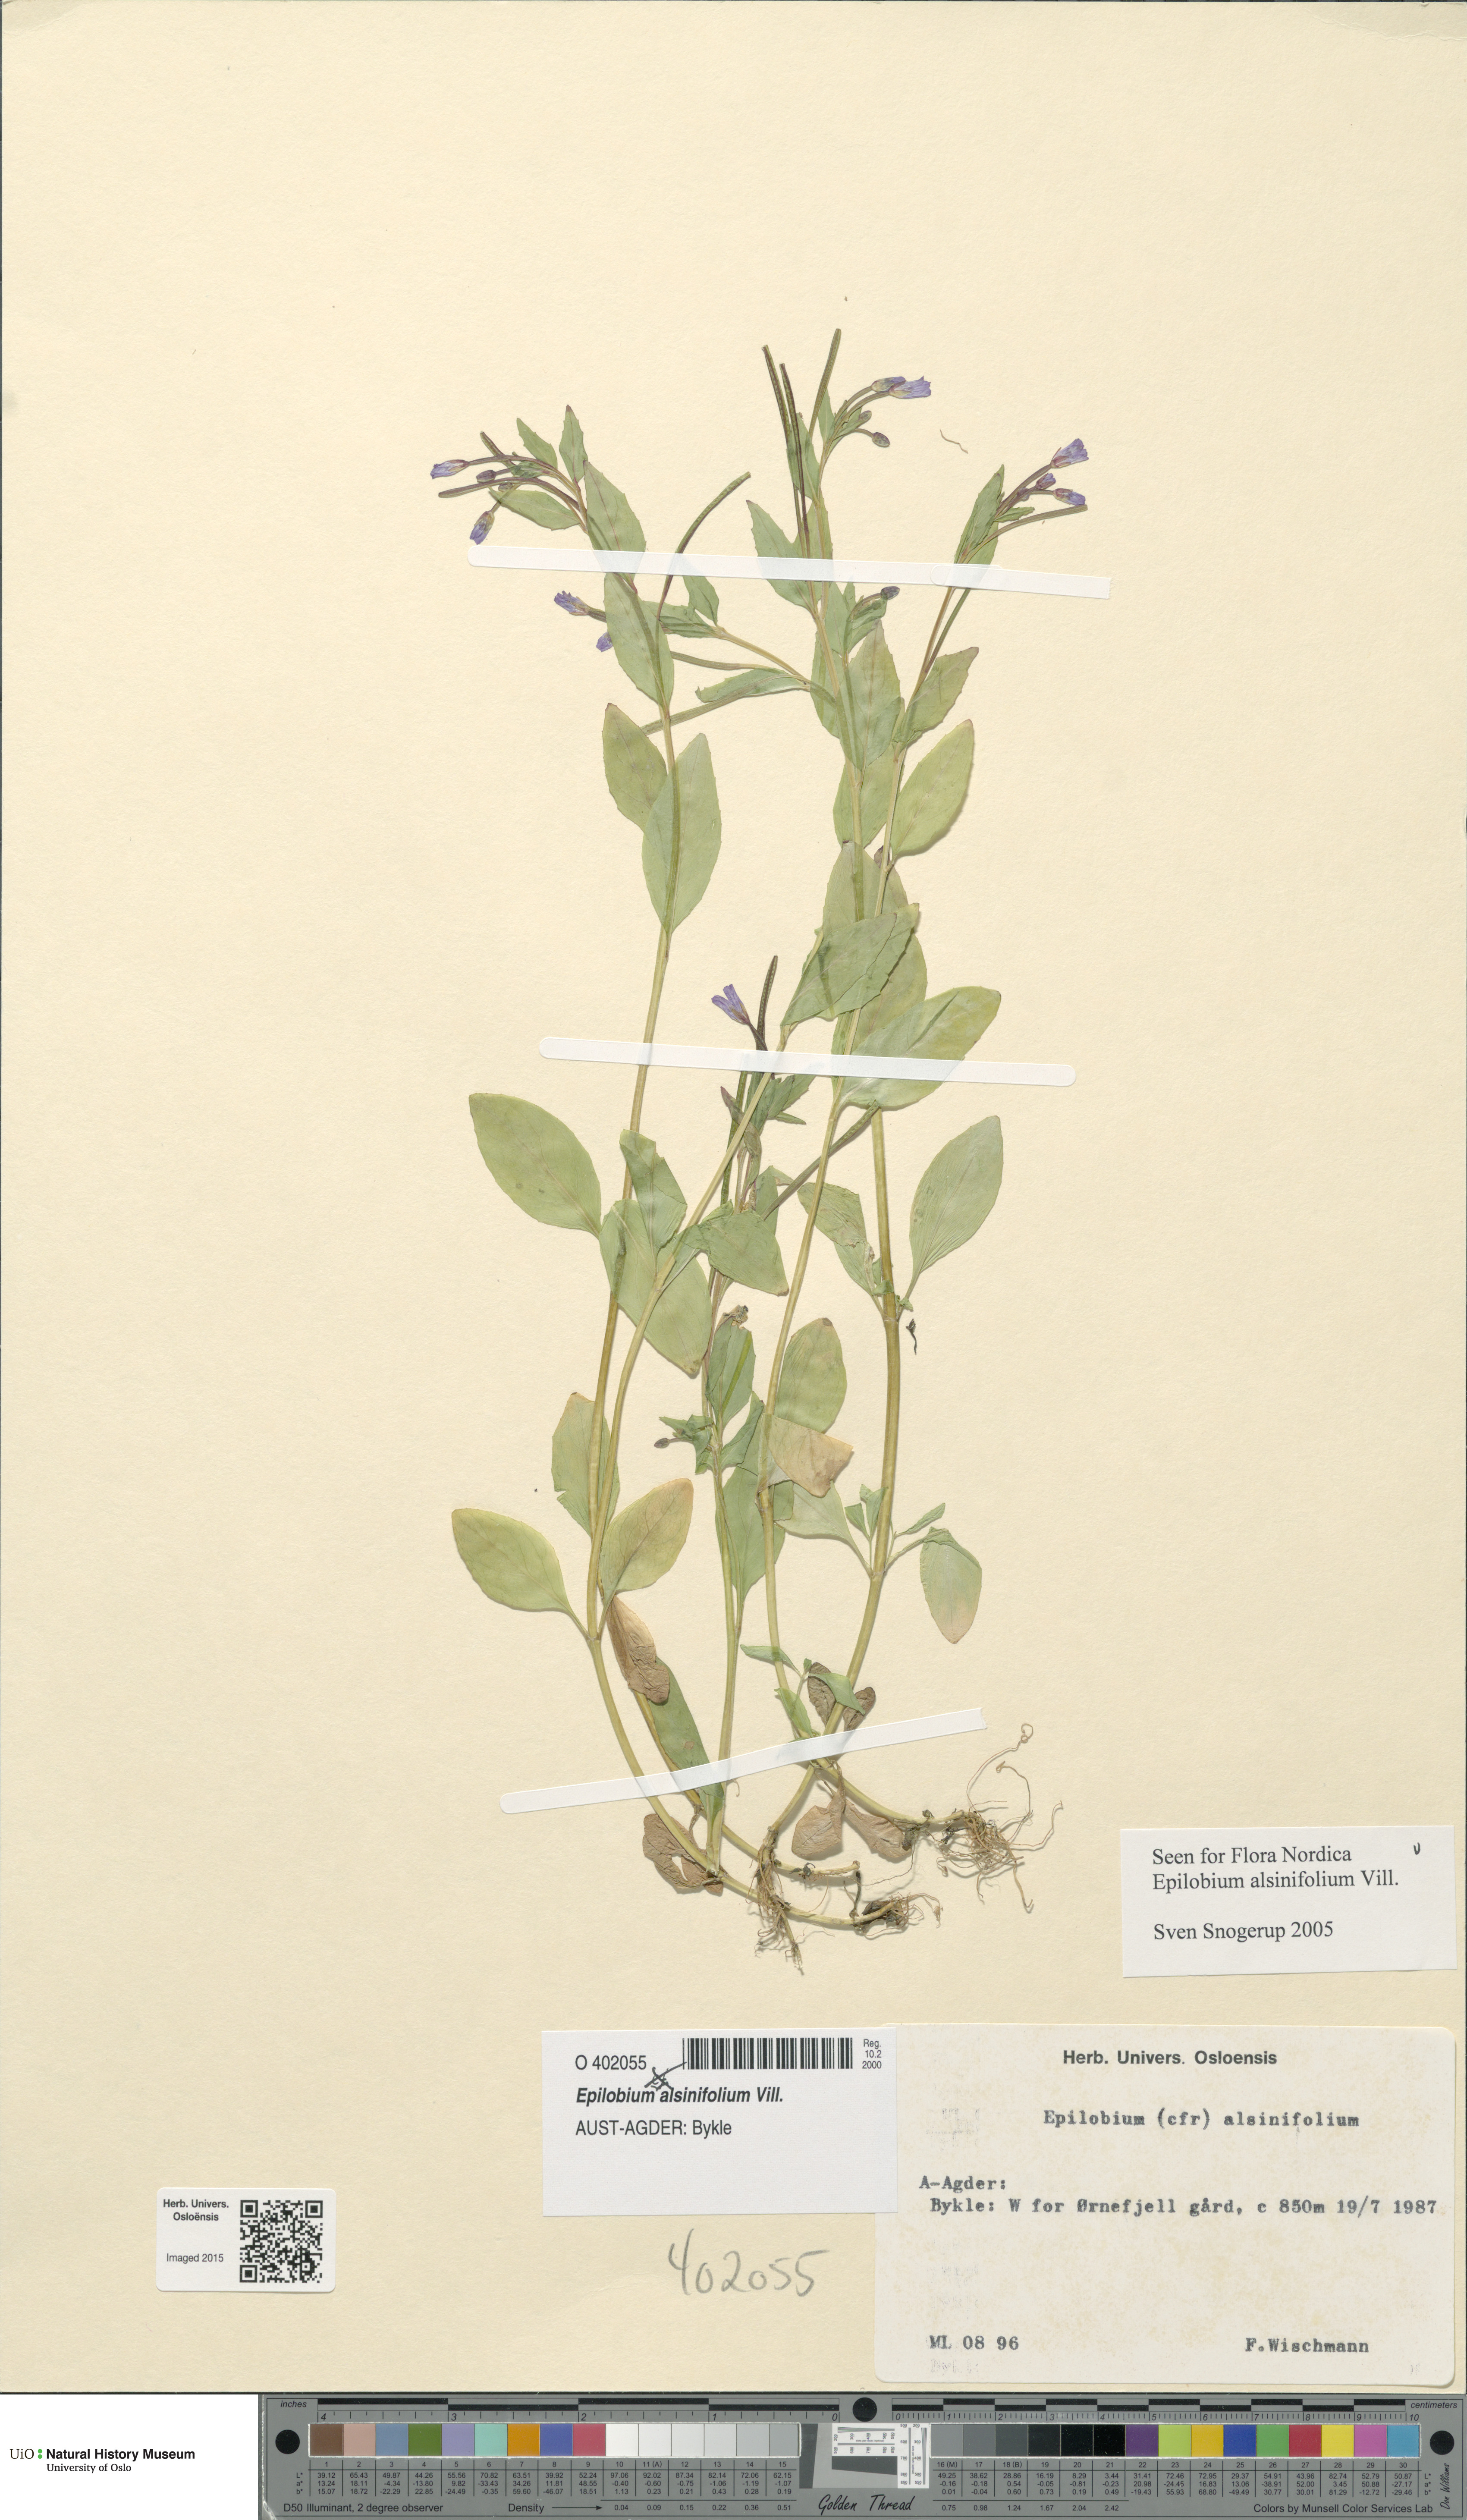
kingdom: Plantae
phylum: Tracheophyta
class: Magnoliopsida
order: Myrtales
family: Onagraceae
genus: Epilobium
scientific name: Epilobium alsinifolium
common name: Chickweed willowherb
